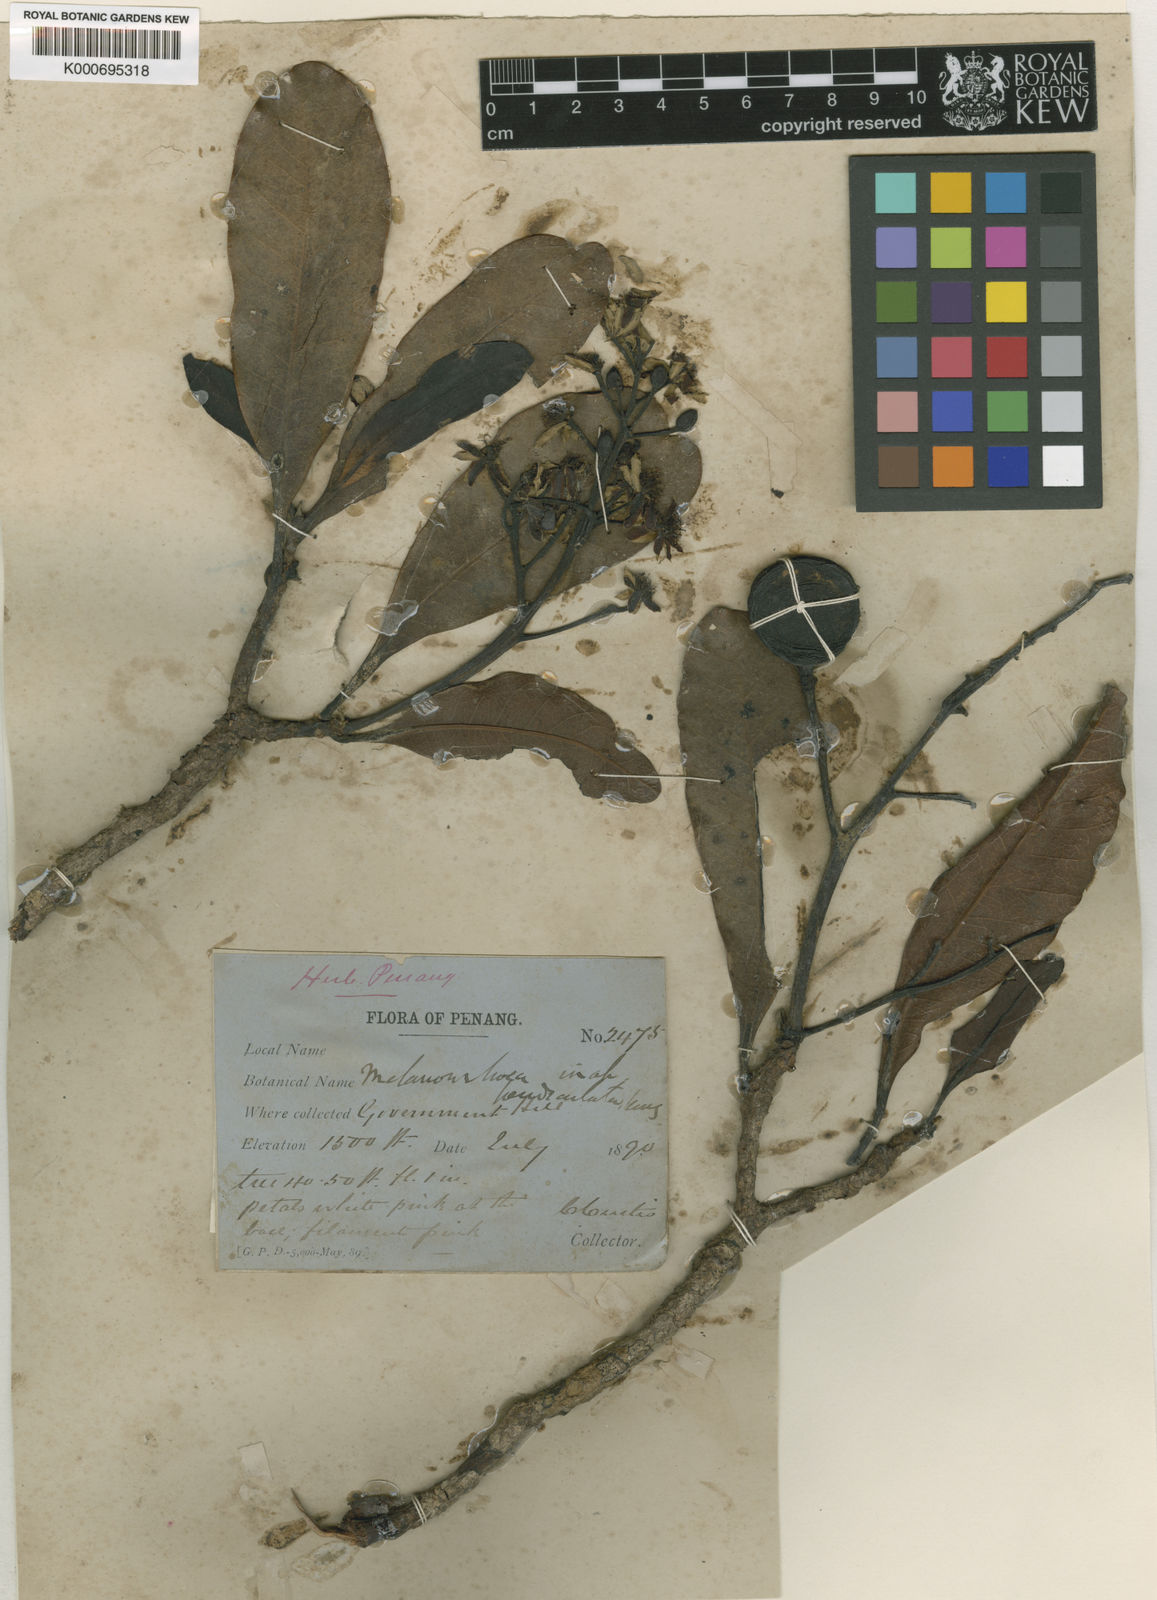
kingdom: Plantae
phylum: Tracheophyta
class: Magnoliopsida
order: Sapindales
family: Anacardiaceae
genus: Gluta
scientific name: Gluta aptera
